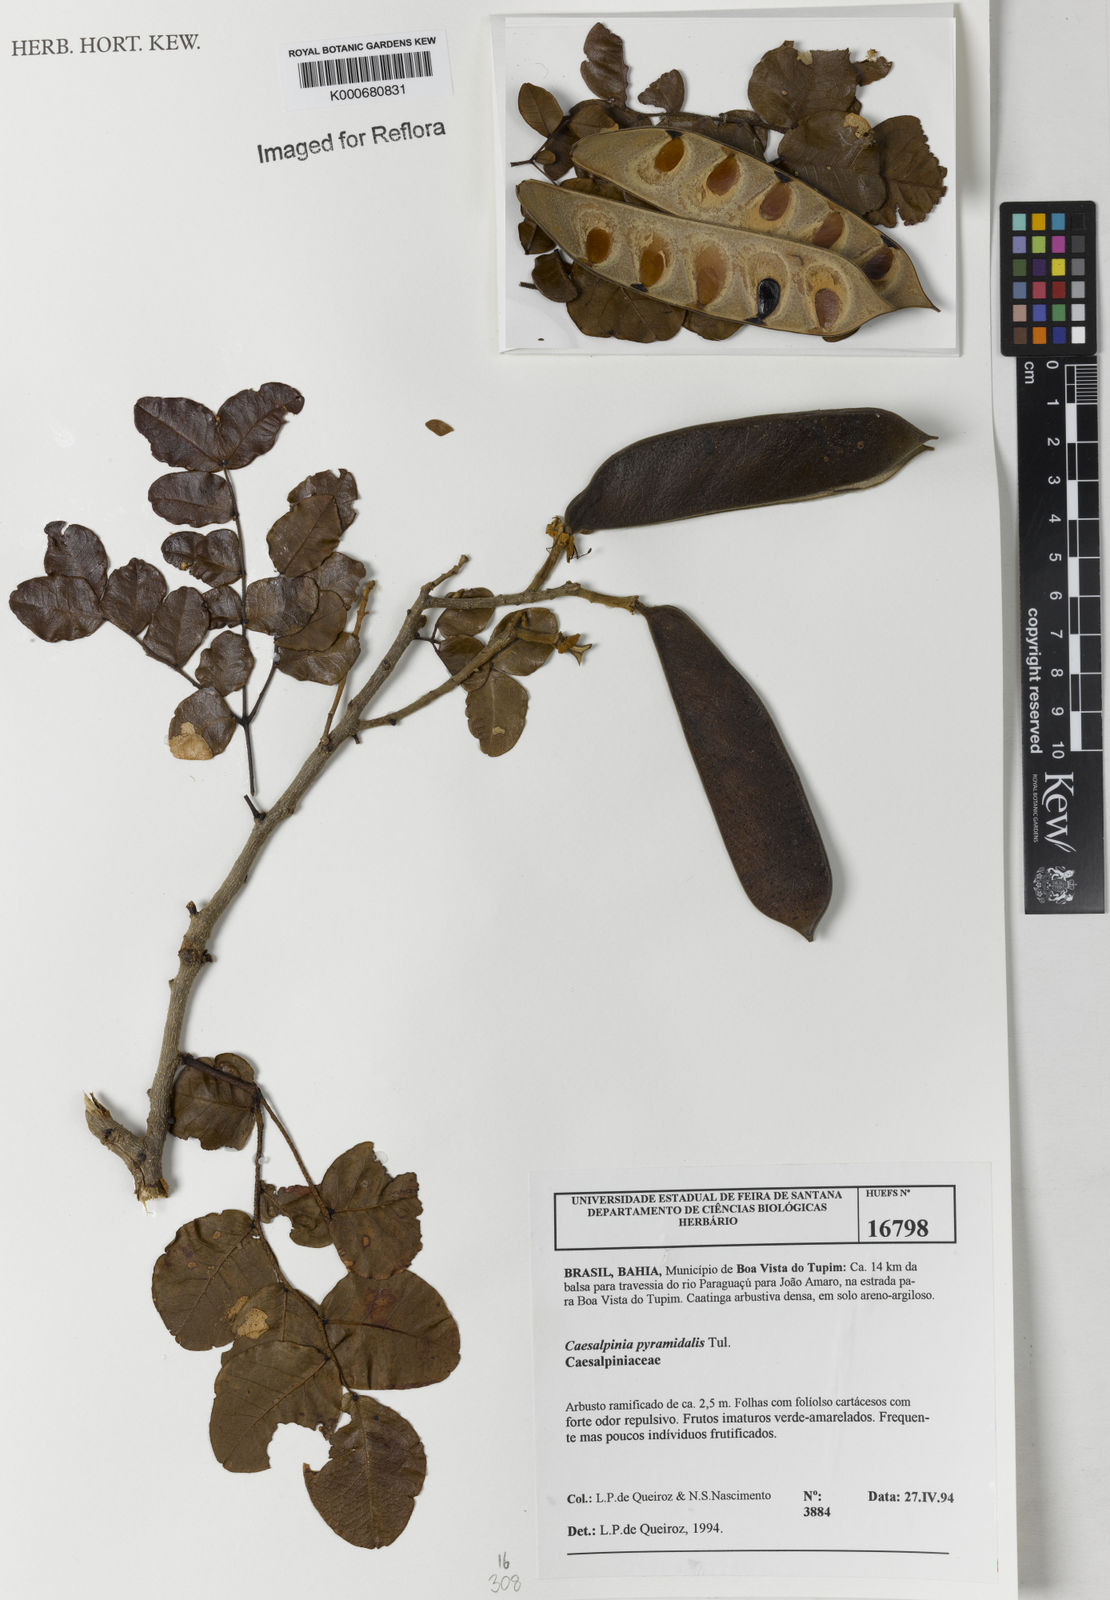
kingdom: Plantae
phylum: Tracheophyta
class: Magnoliopsida
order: Fabales
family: Fabaceae
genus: Cenostigma
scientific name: Cenostigma pyramidale
